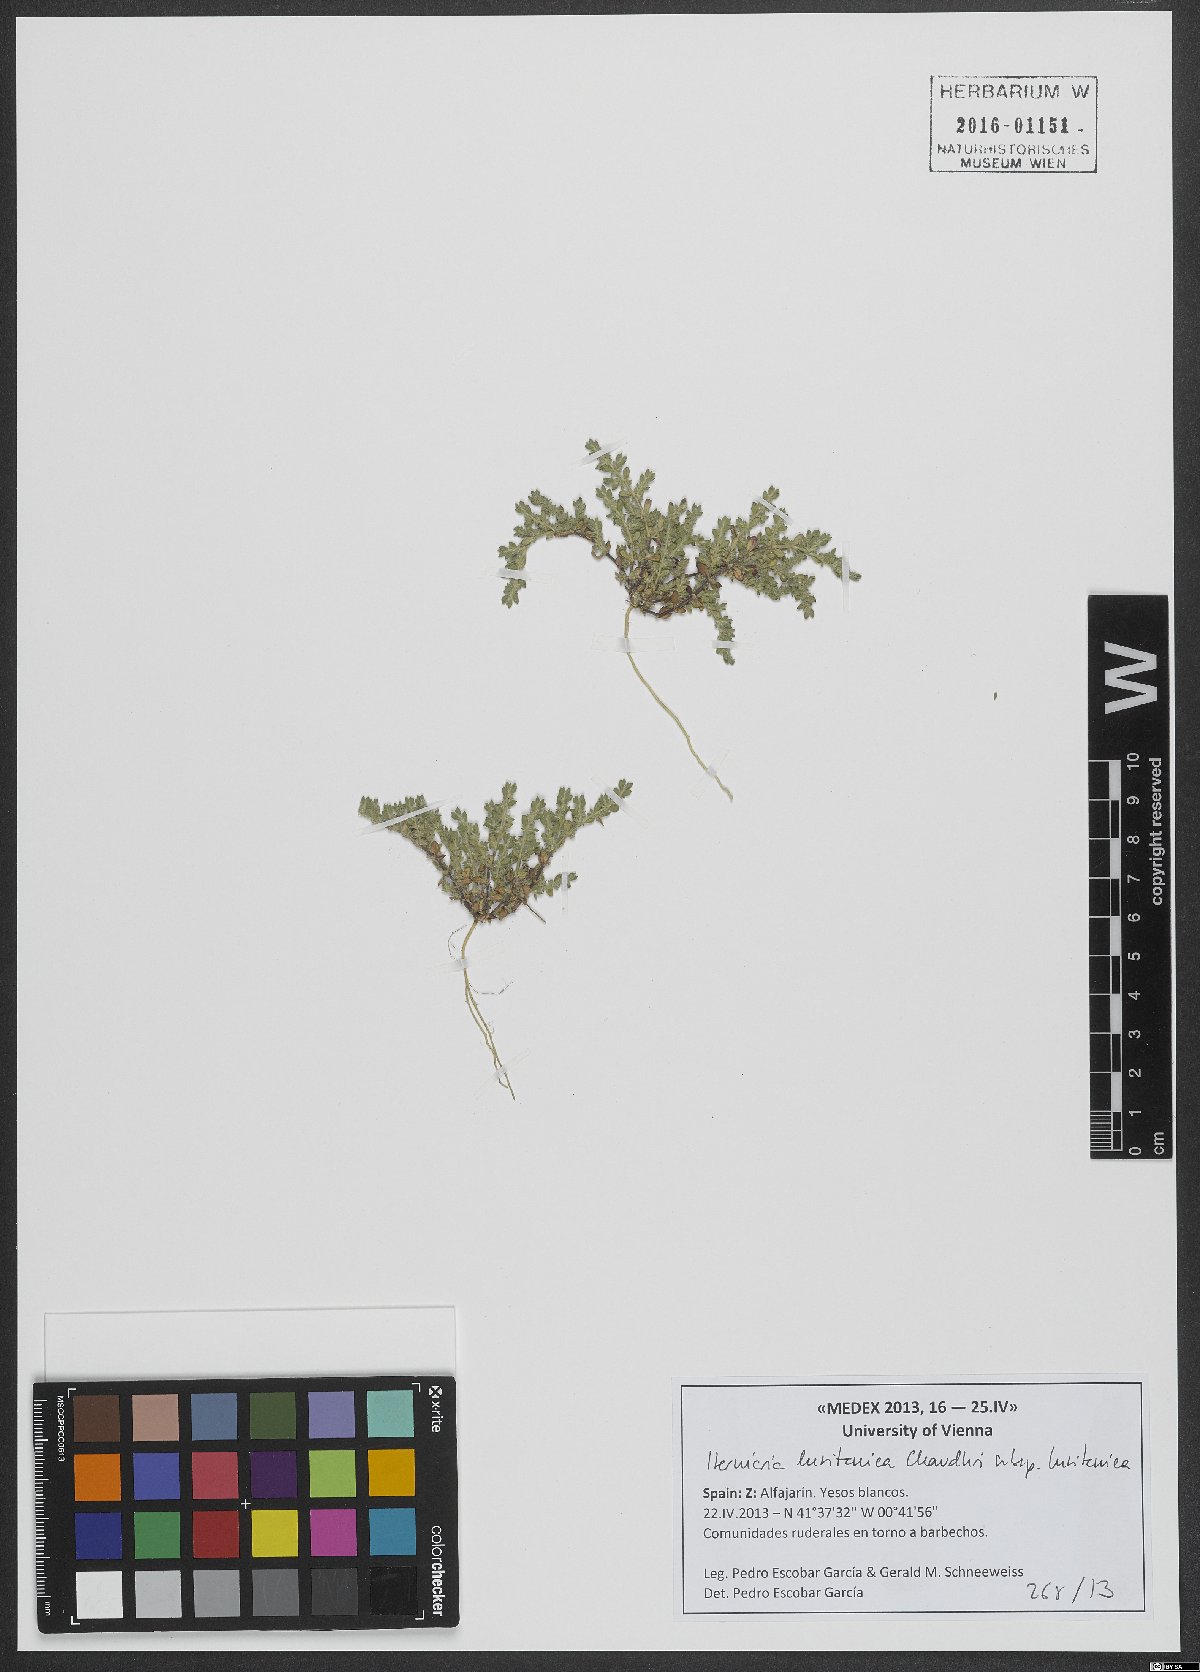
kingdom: Plantae
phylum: Tracheophyta
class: Magnoliopsida
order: Caryophyllales
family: Caryophyllaceae
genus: Herniaria
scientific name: Herniaria lusitanica
